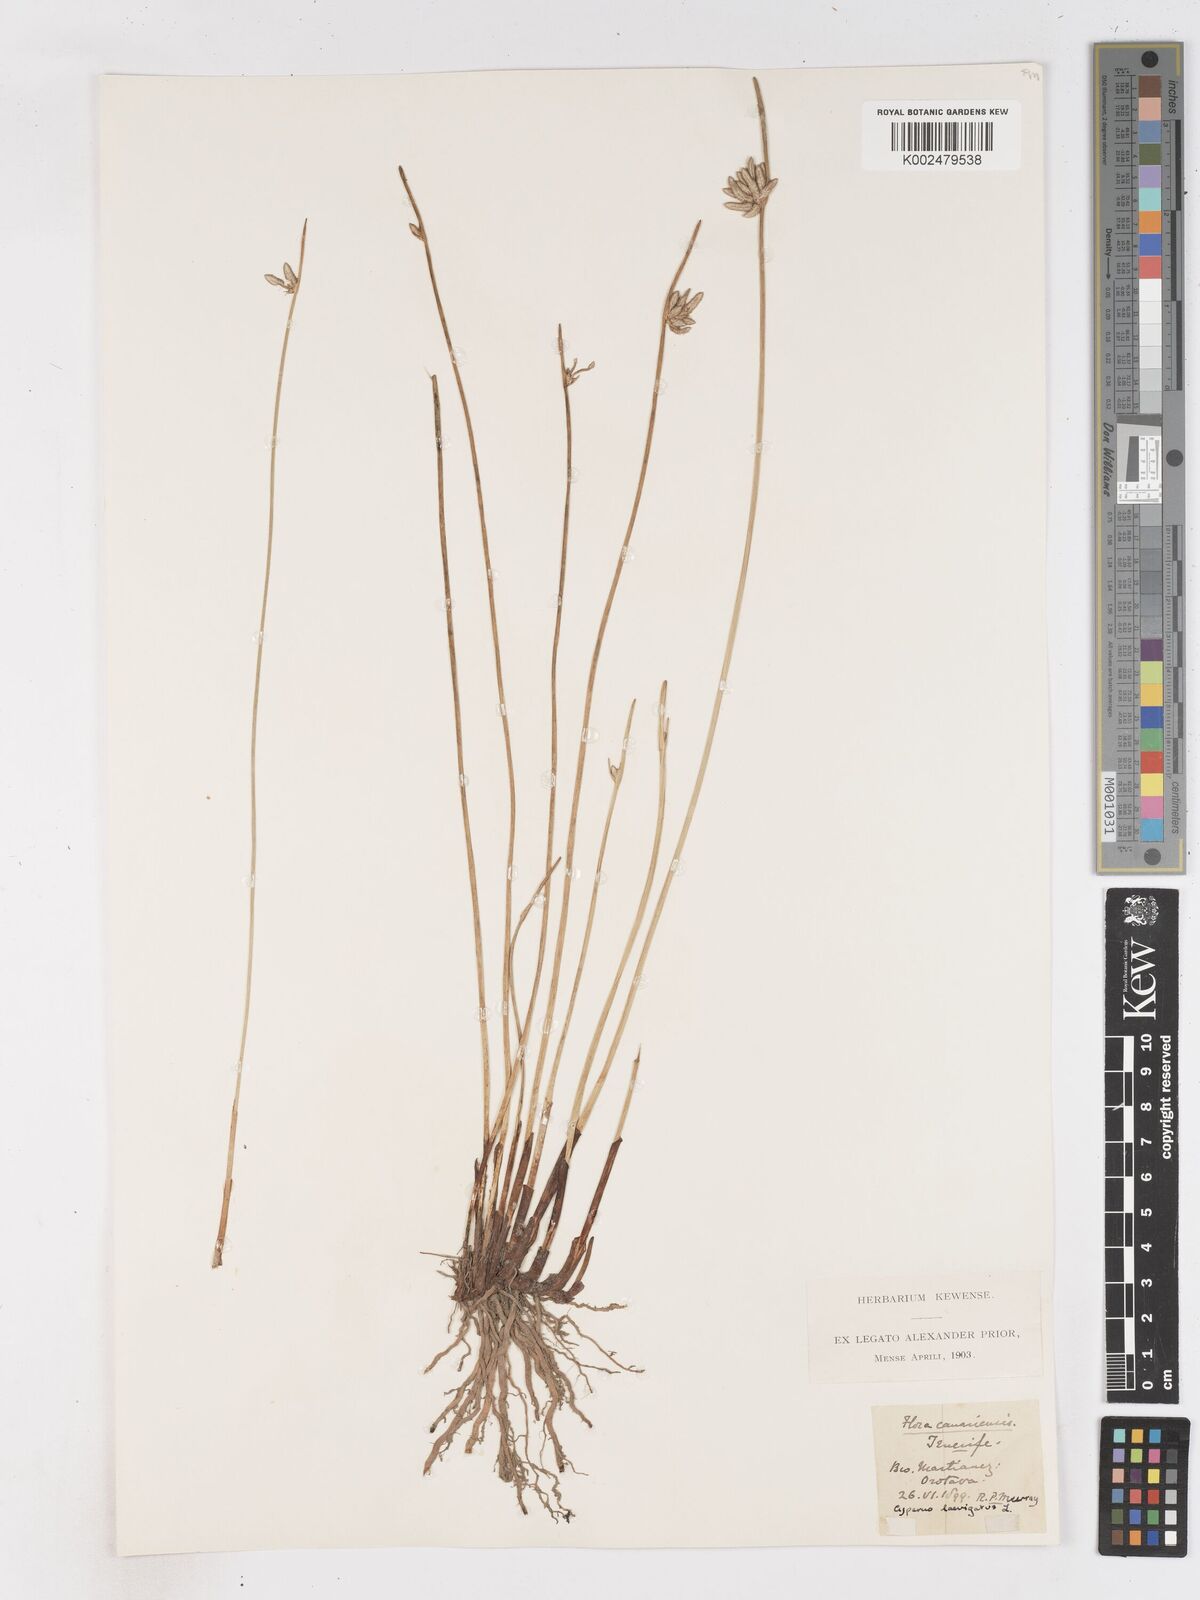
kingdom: Plantae
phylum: Tracheophyta
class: Liliopsida
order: Poales
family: Cyperaceae
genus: Cyperus
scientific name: Cyperus laevigatus
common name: Smooth flat sedge
